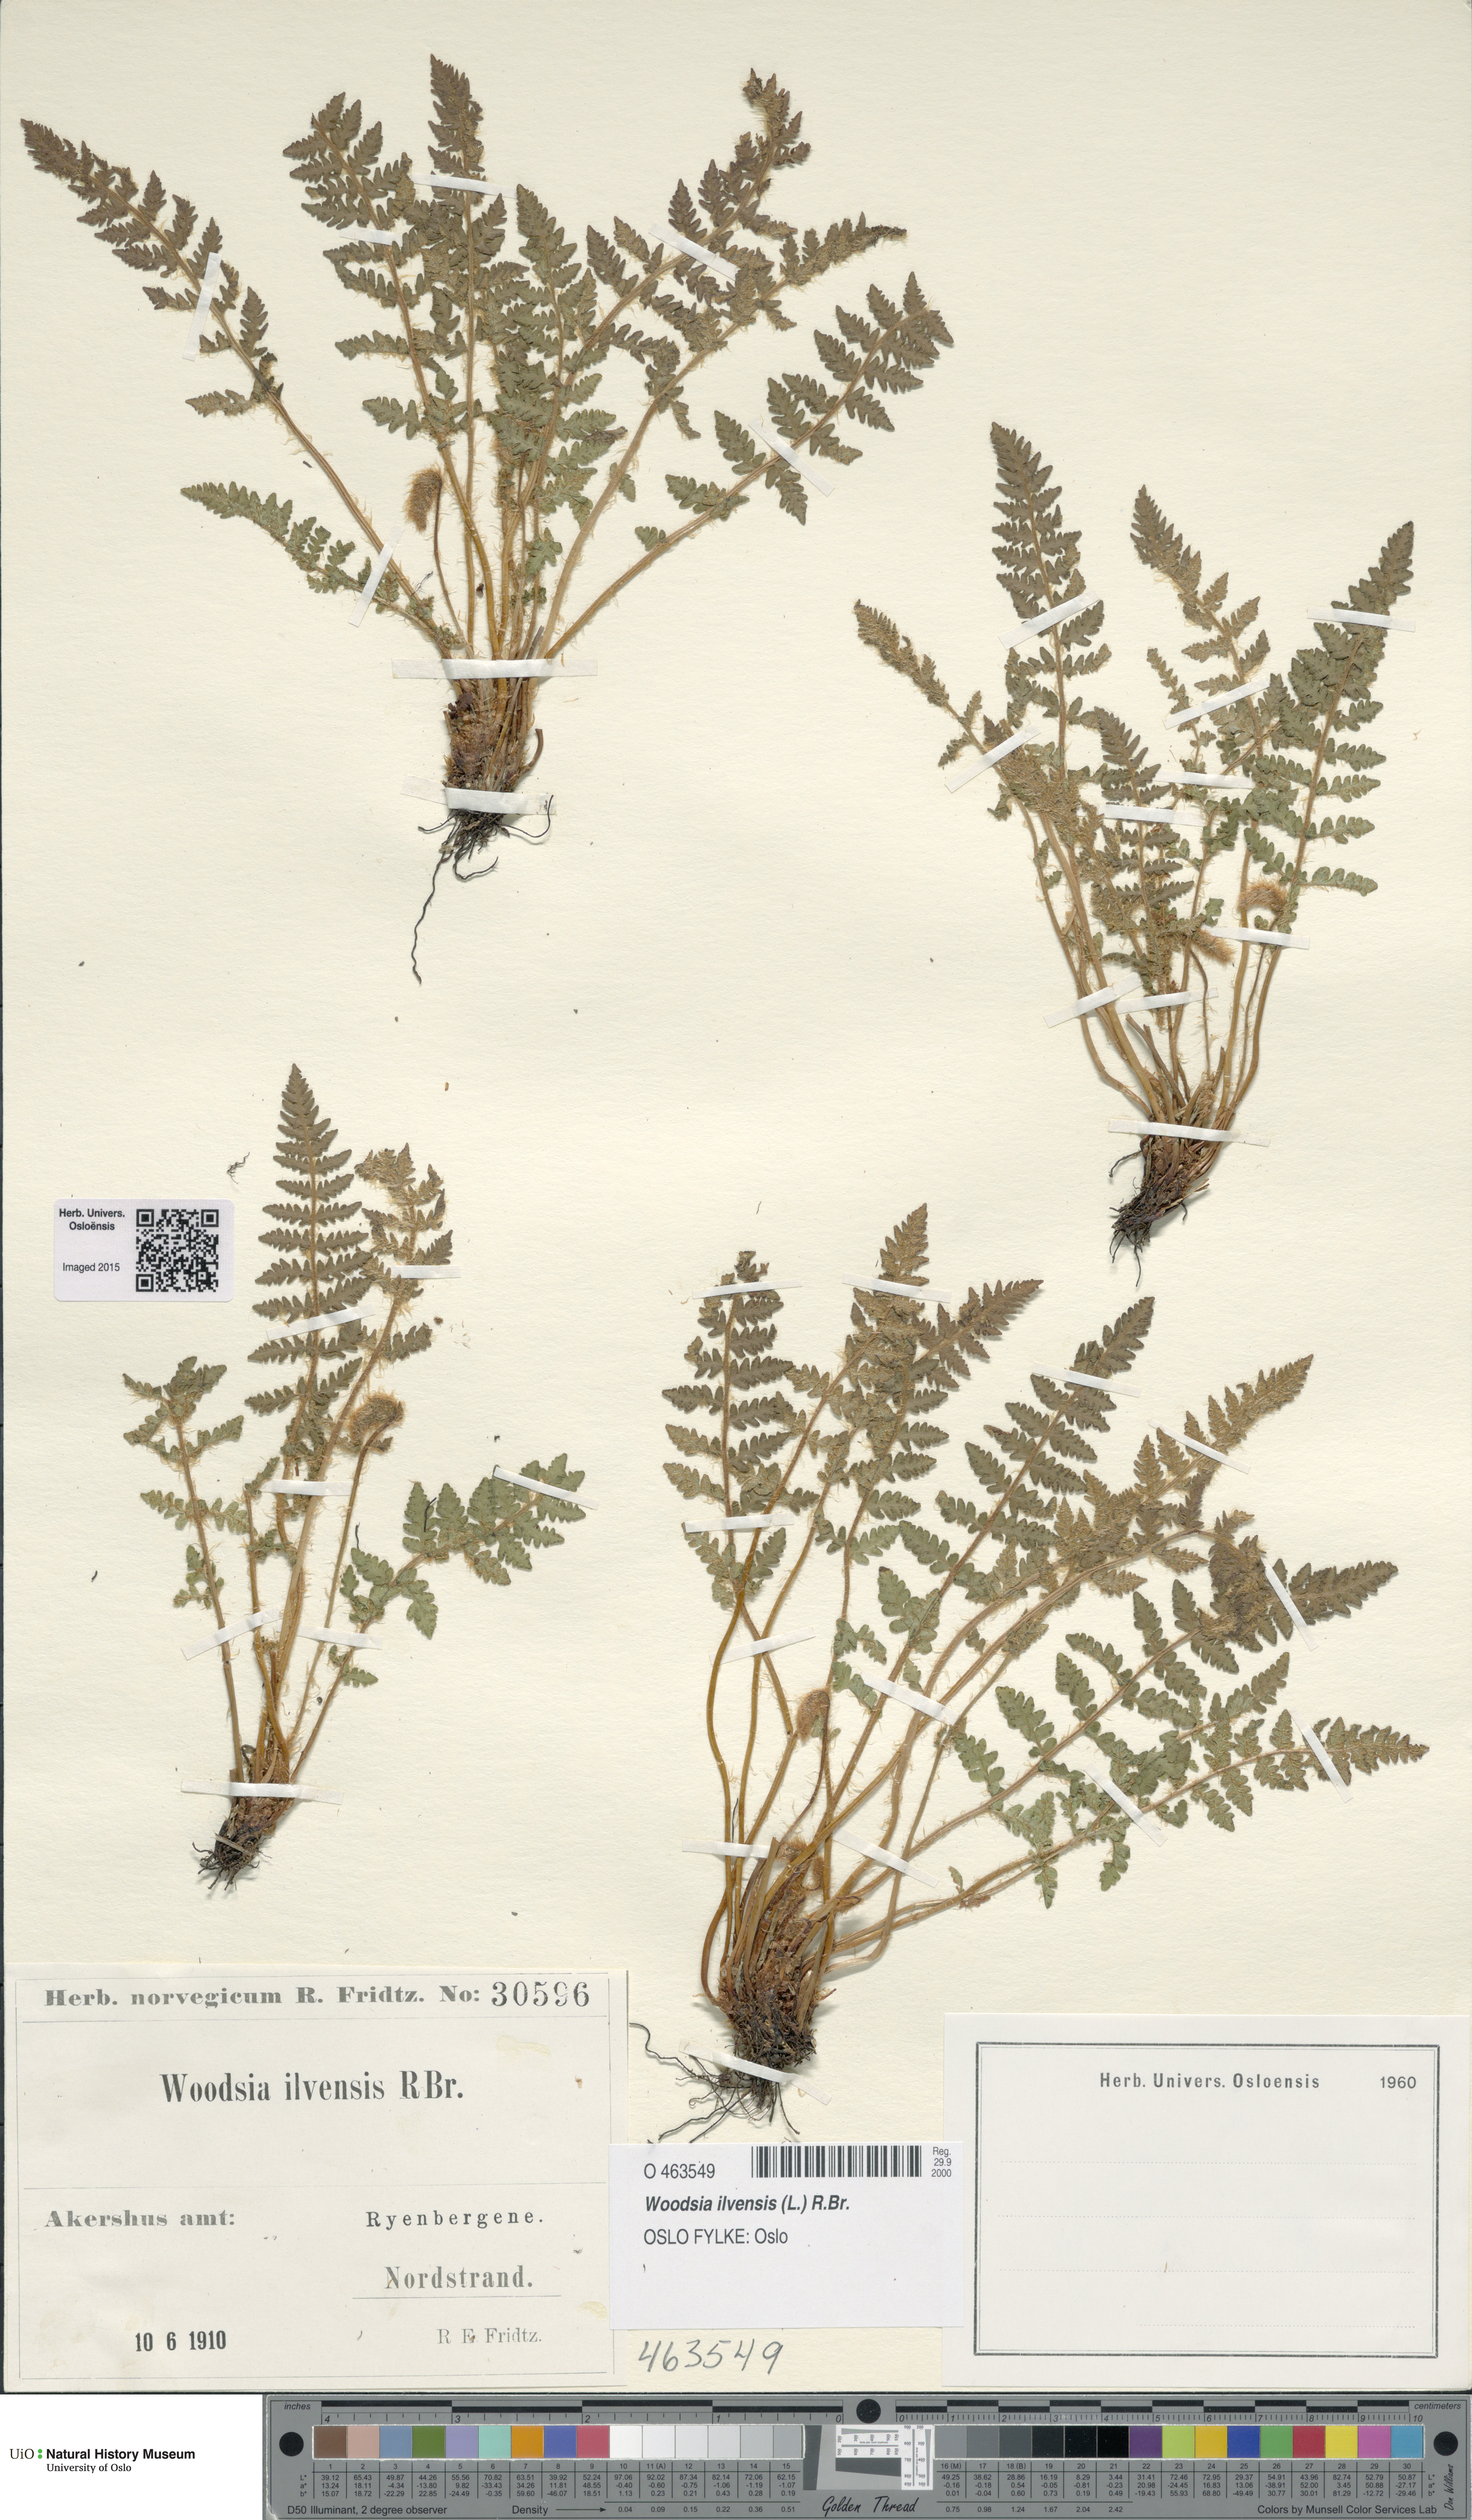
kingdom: Plantae
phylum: Tracheophyta
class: Polypodiopsida
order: Polypodiales
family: Woodsiaceae
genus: Woodsia
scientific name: Woodsia ilvensis
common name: Fragrant woodsia
